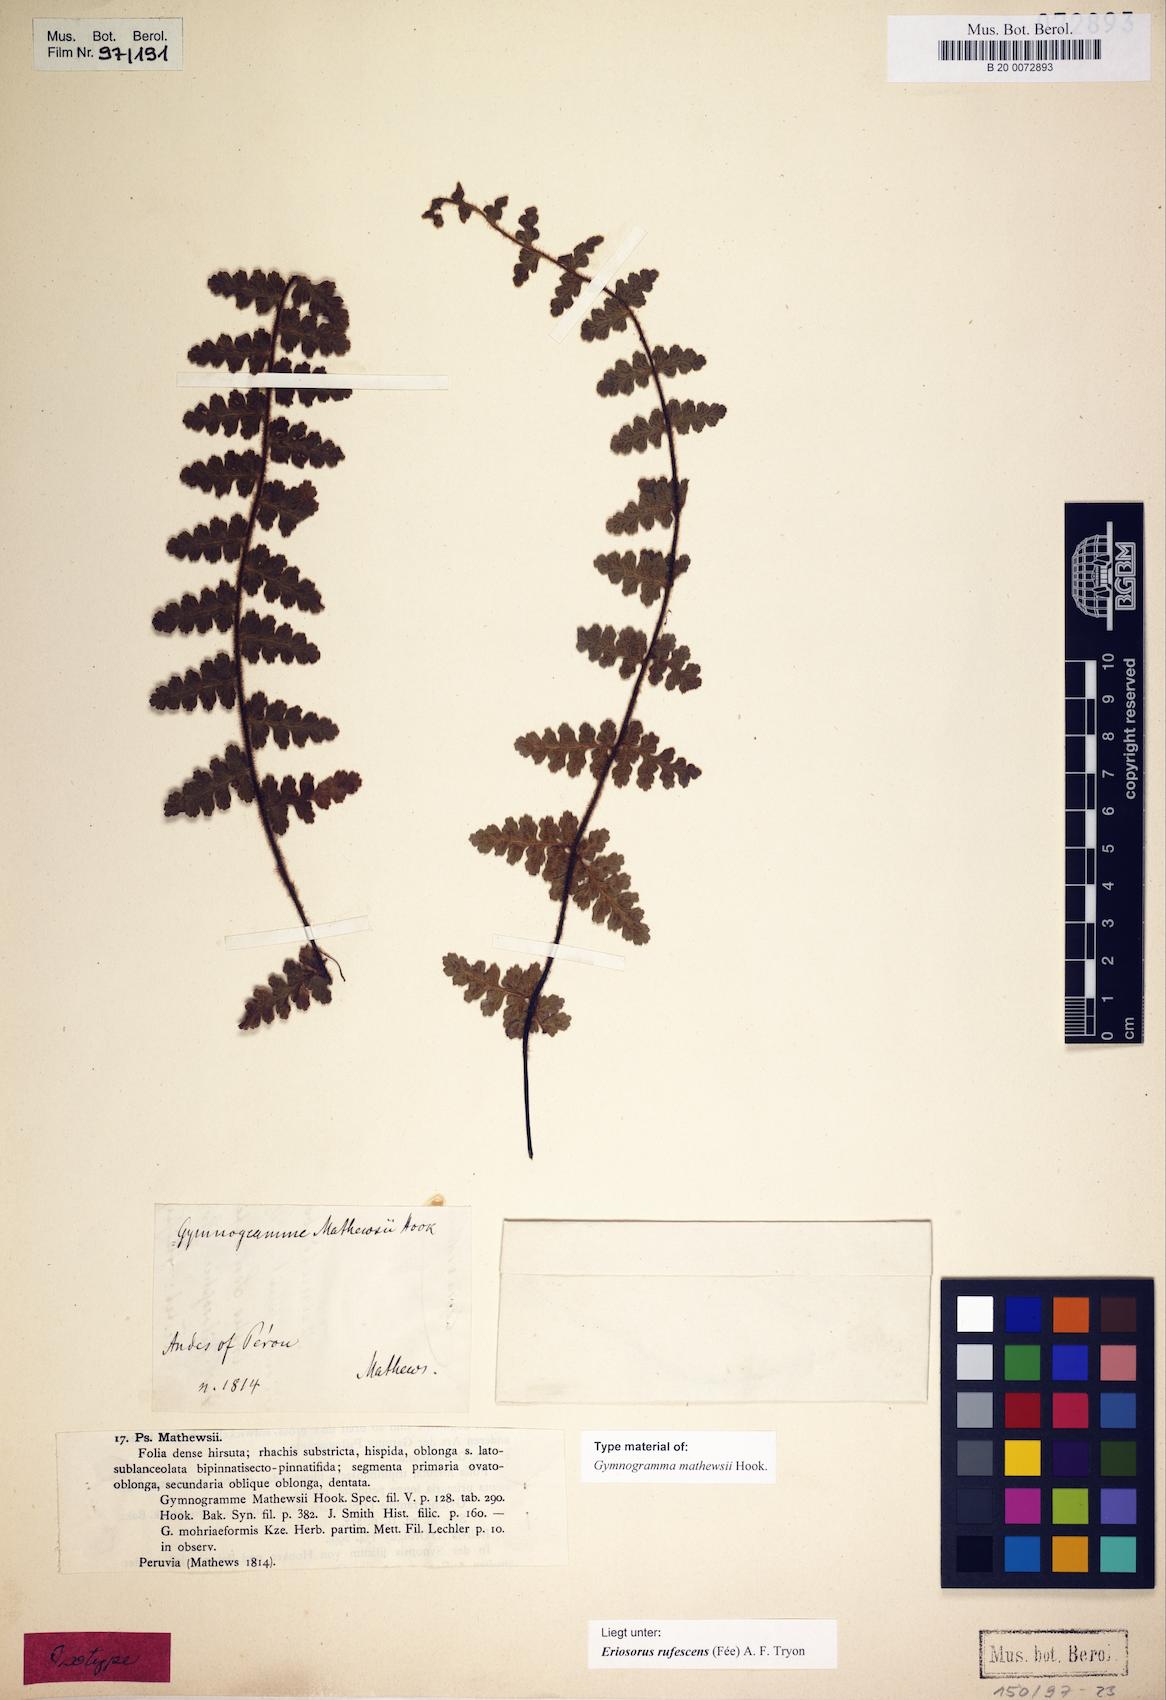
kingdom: Plantae
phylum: Tracheophyta
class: Polypodiopsida
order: Polypodiales
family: Pteridaceae
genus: Jamesonia
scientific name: Jamesonia rufescens
